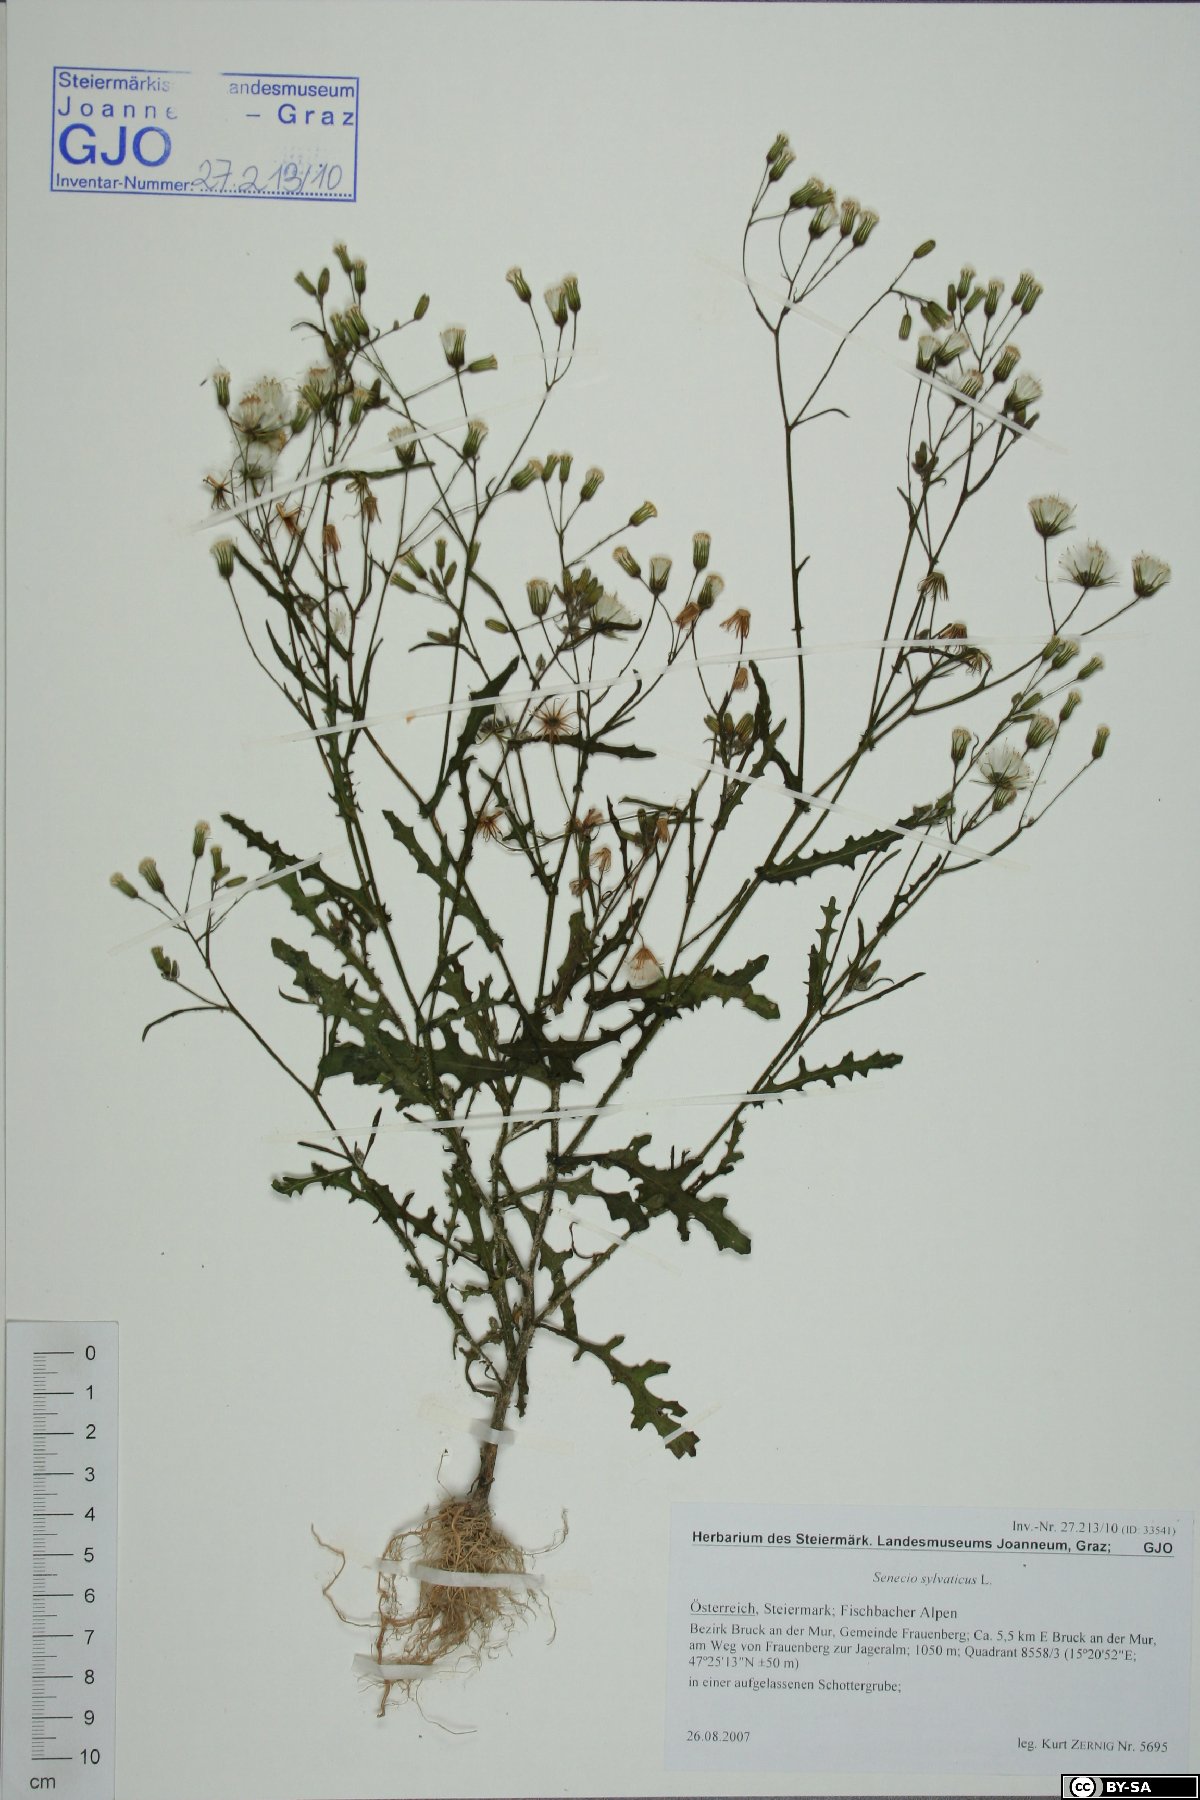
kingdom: Plantae
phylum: Tracheophyta
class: Magnoliopsida
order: Asterales
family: Asteraceae
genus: Senecio
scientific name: Senecio sylvaticus
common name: Woodland ragwort
